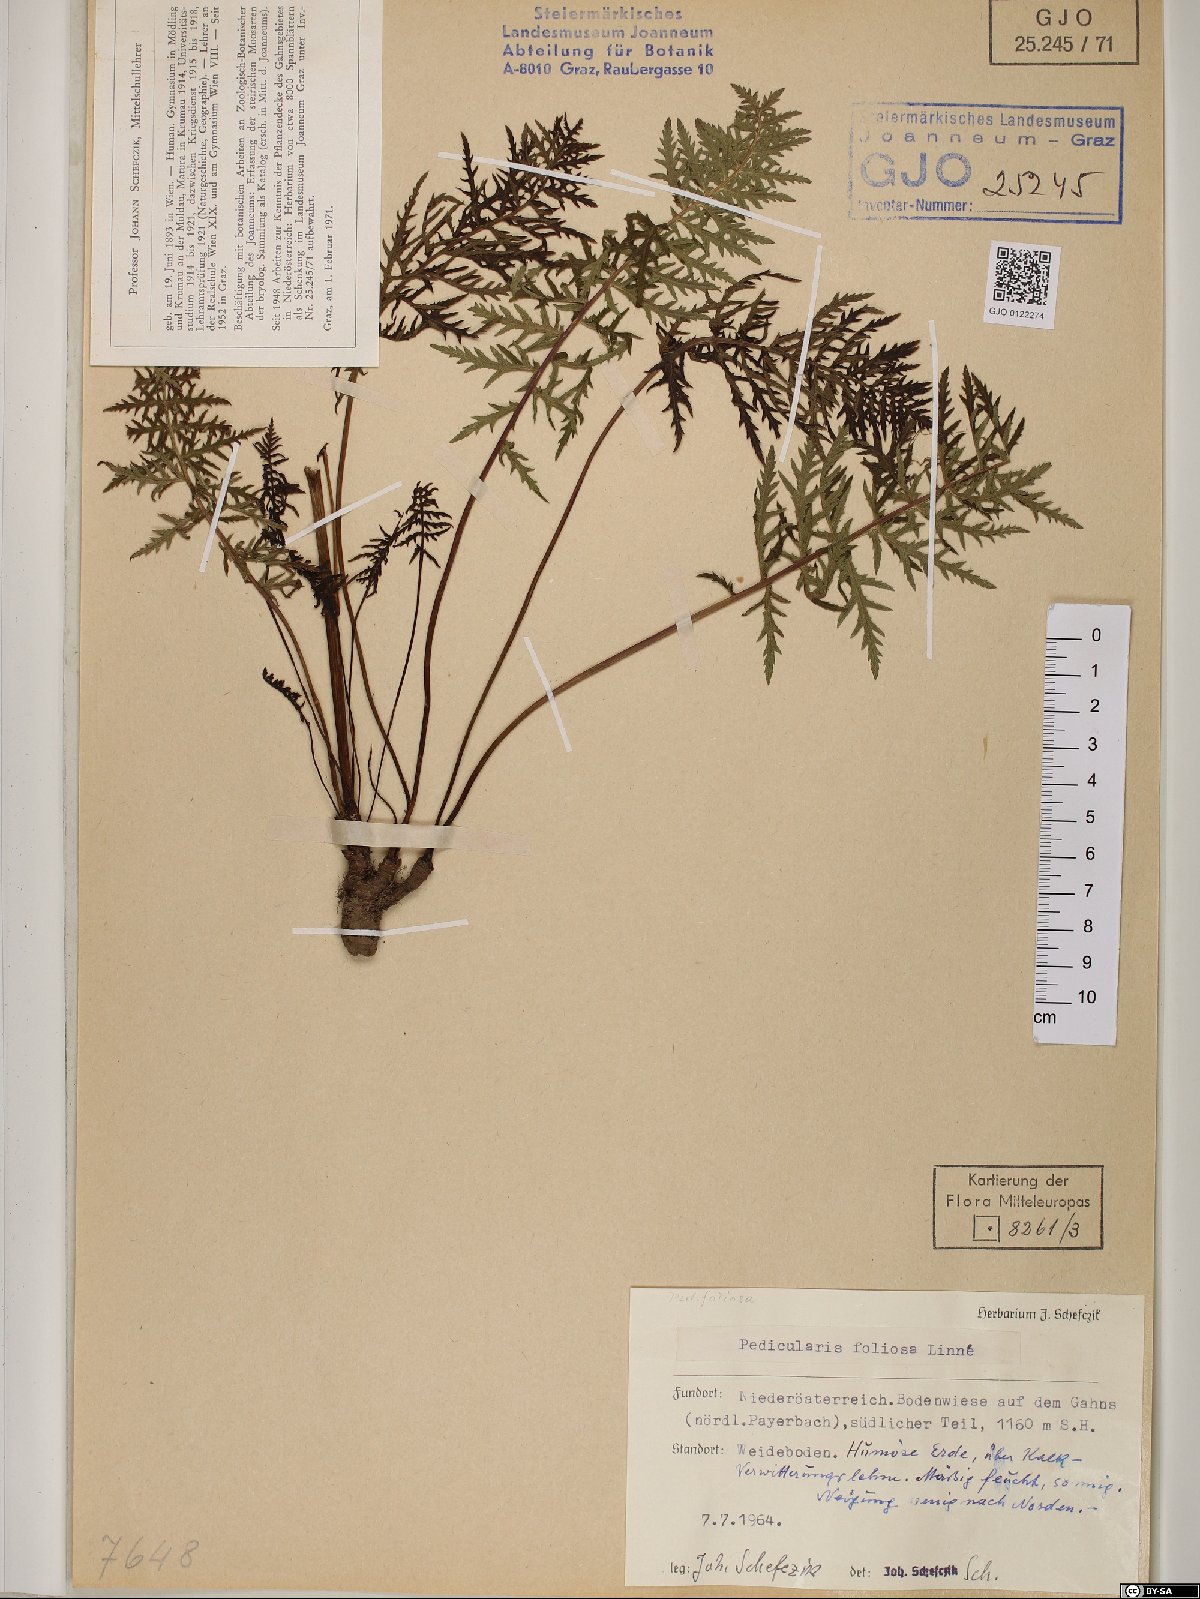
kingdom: Plantae
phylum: Tracheophyta
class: Magnoliopsida
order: Lamiales
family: Orobanchaceae
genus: Pedicularis
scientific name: Pedicularis foliosa
